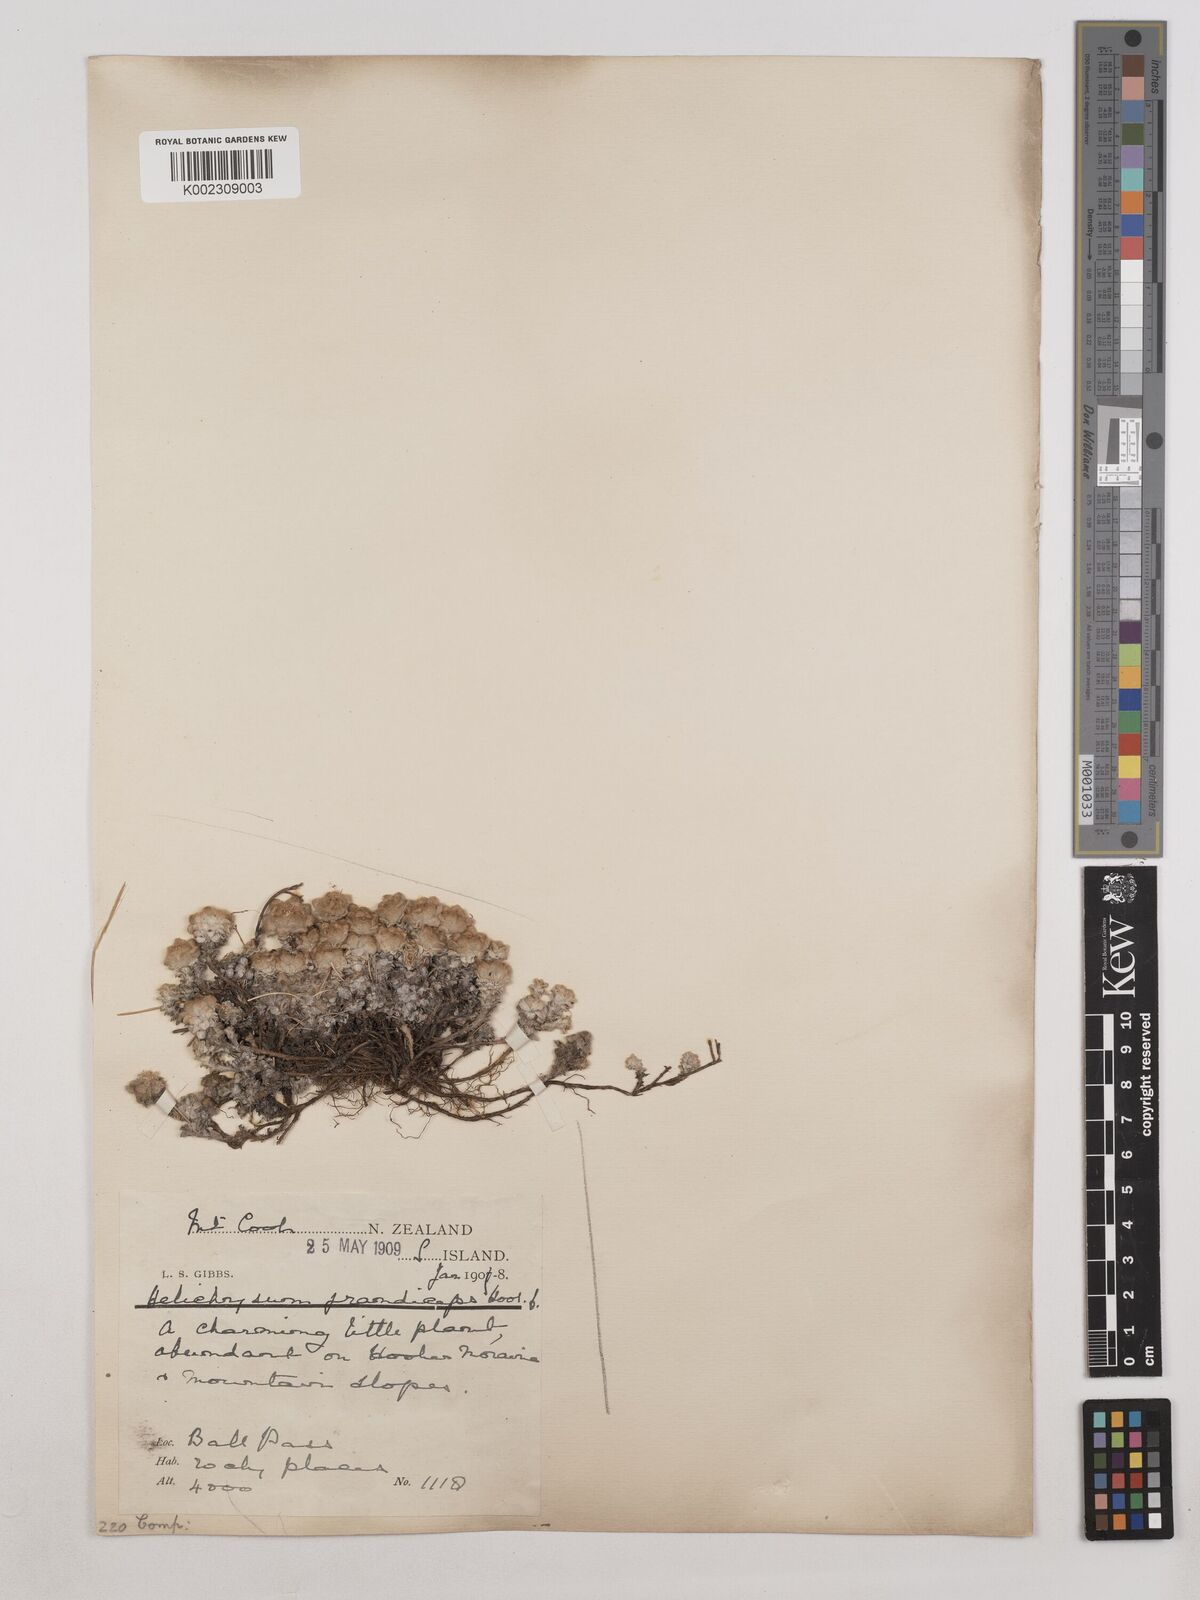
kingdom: Plantae
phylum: Tracheophyta
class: Magnoliopsida
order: Asterales
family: Asteraceae
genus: Leucogenes
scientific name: Leucogenes grandiceps
